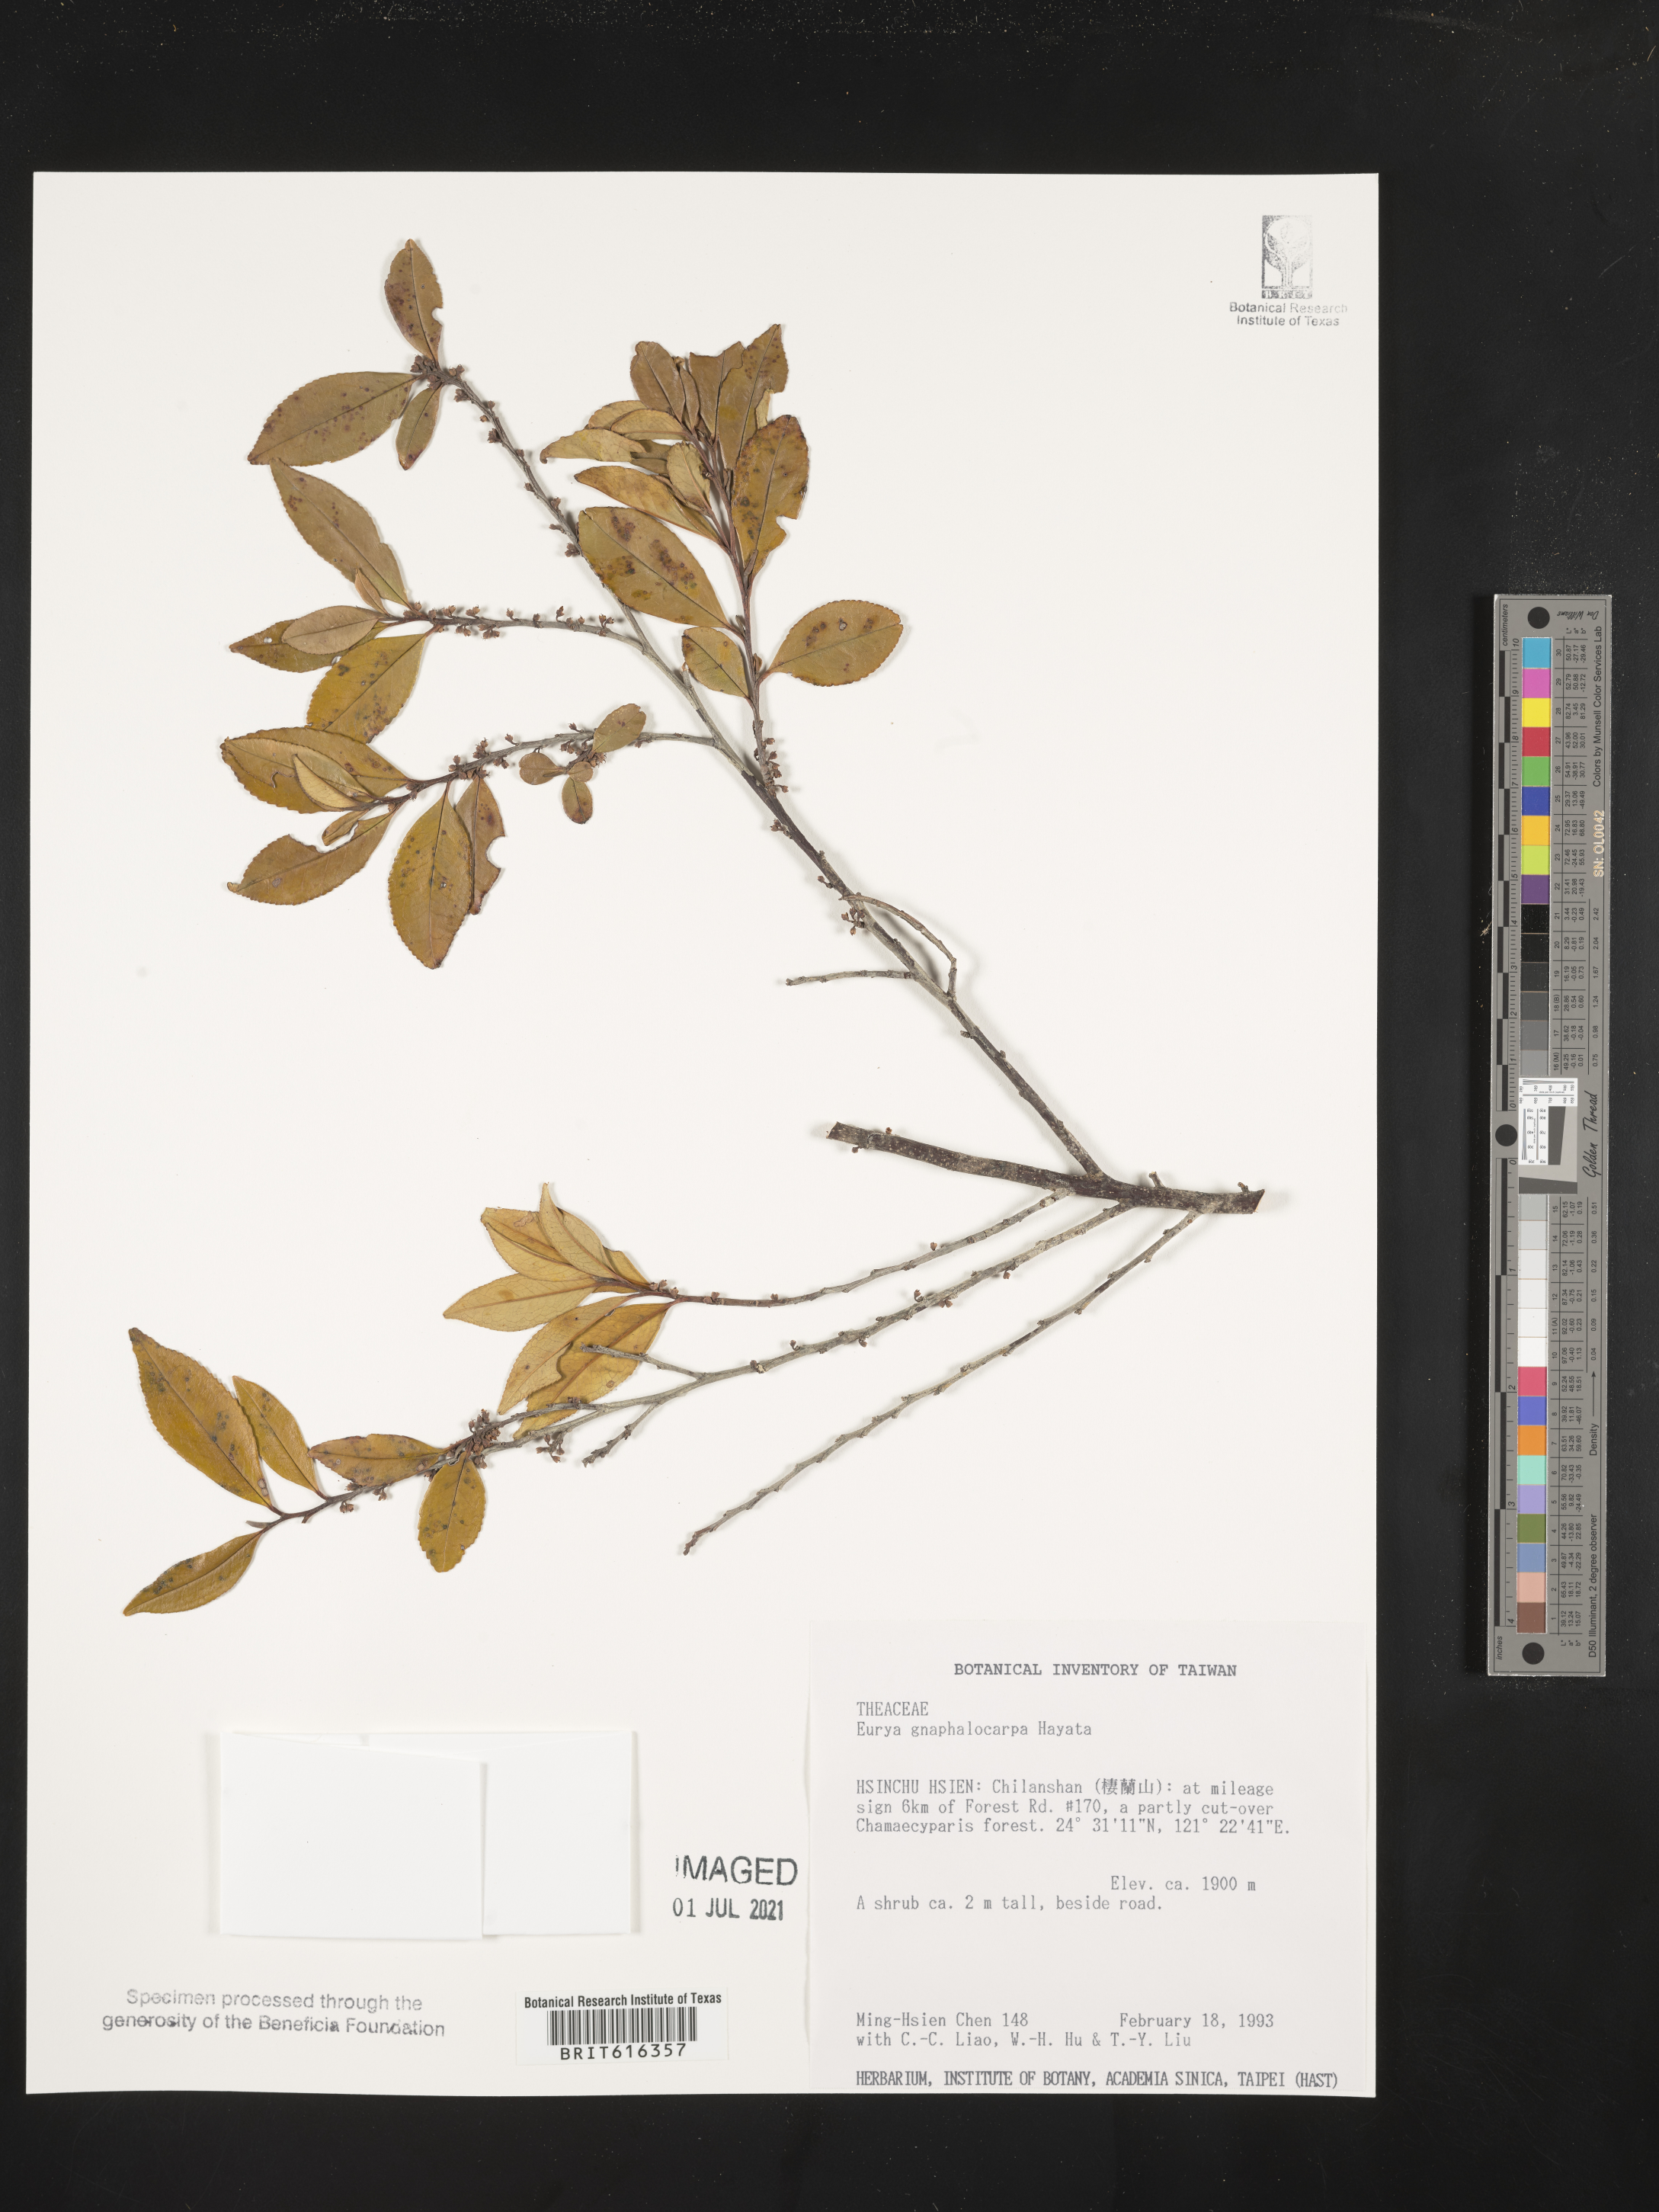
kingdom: Plantae
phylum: Tracheophyta
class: Magnoliopsida
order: Ericales
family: Pentaphylacaceae
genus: Eurya
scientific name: Eurya gnaphalocarpa
